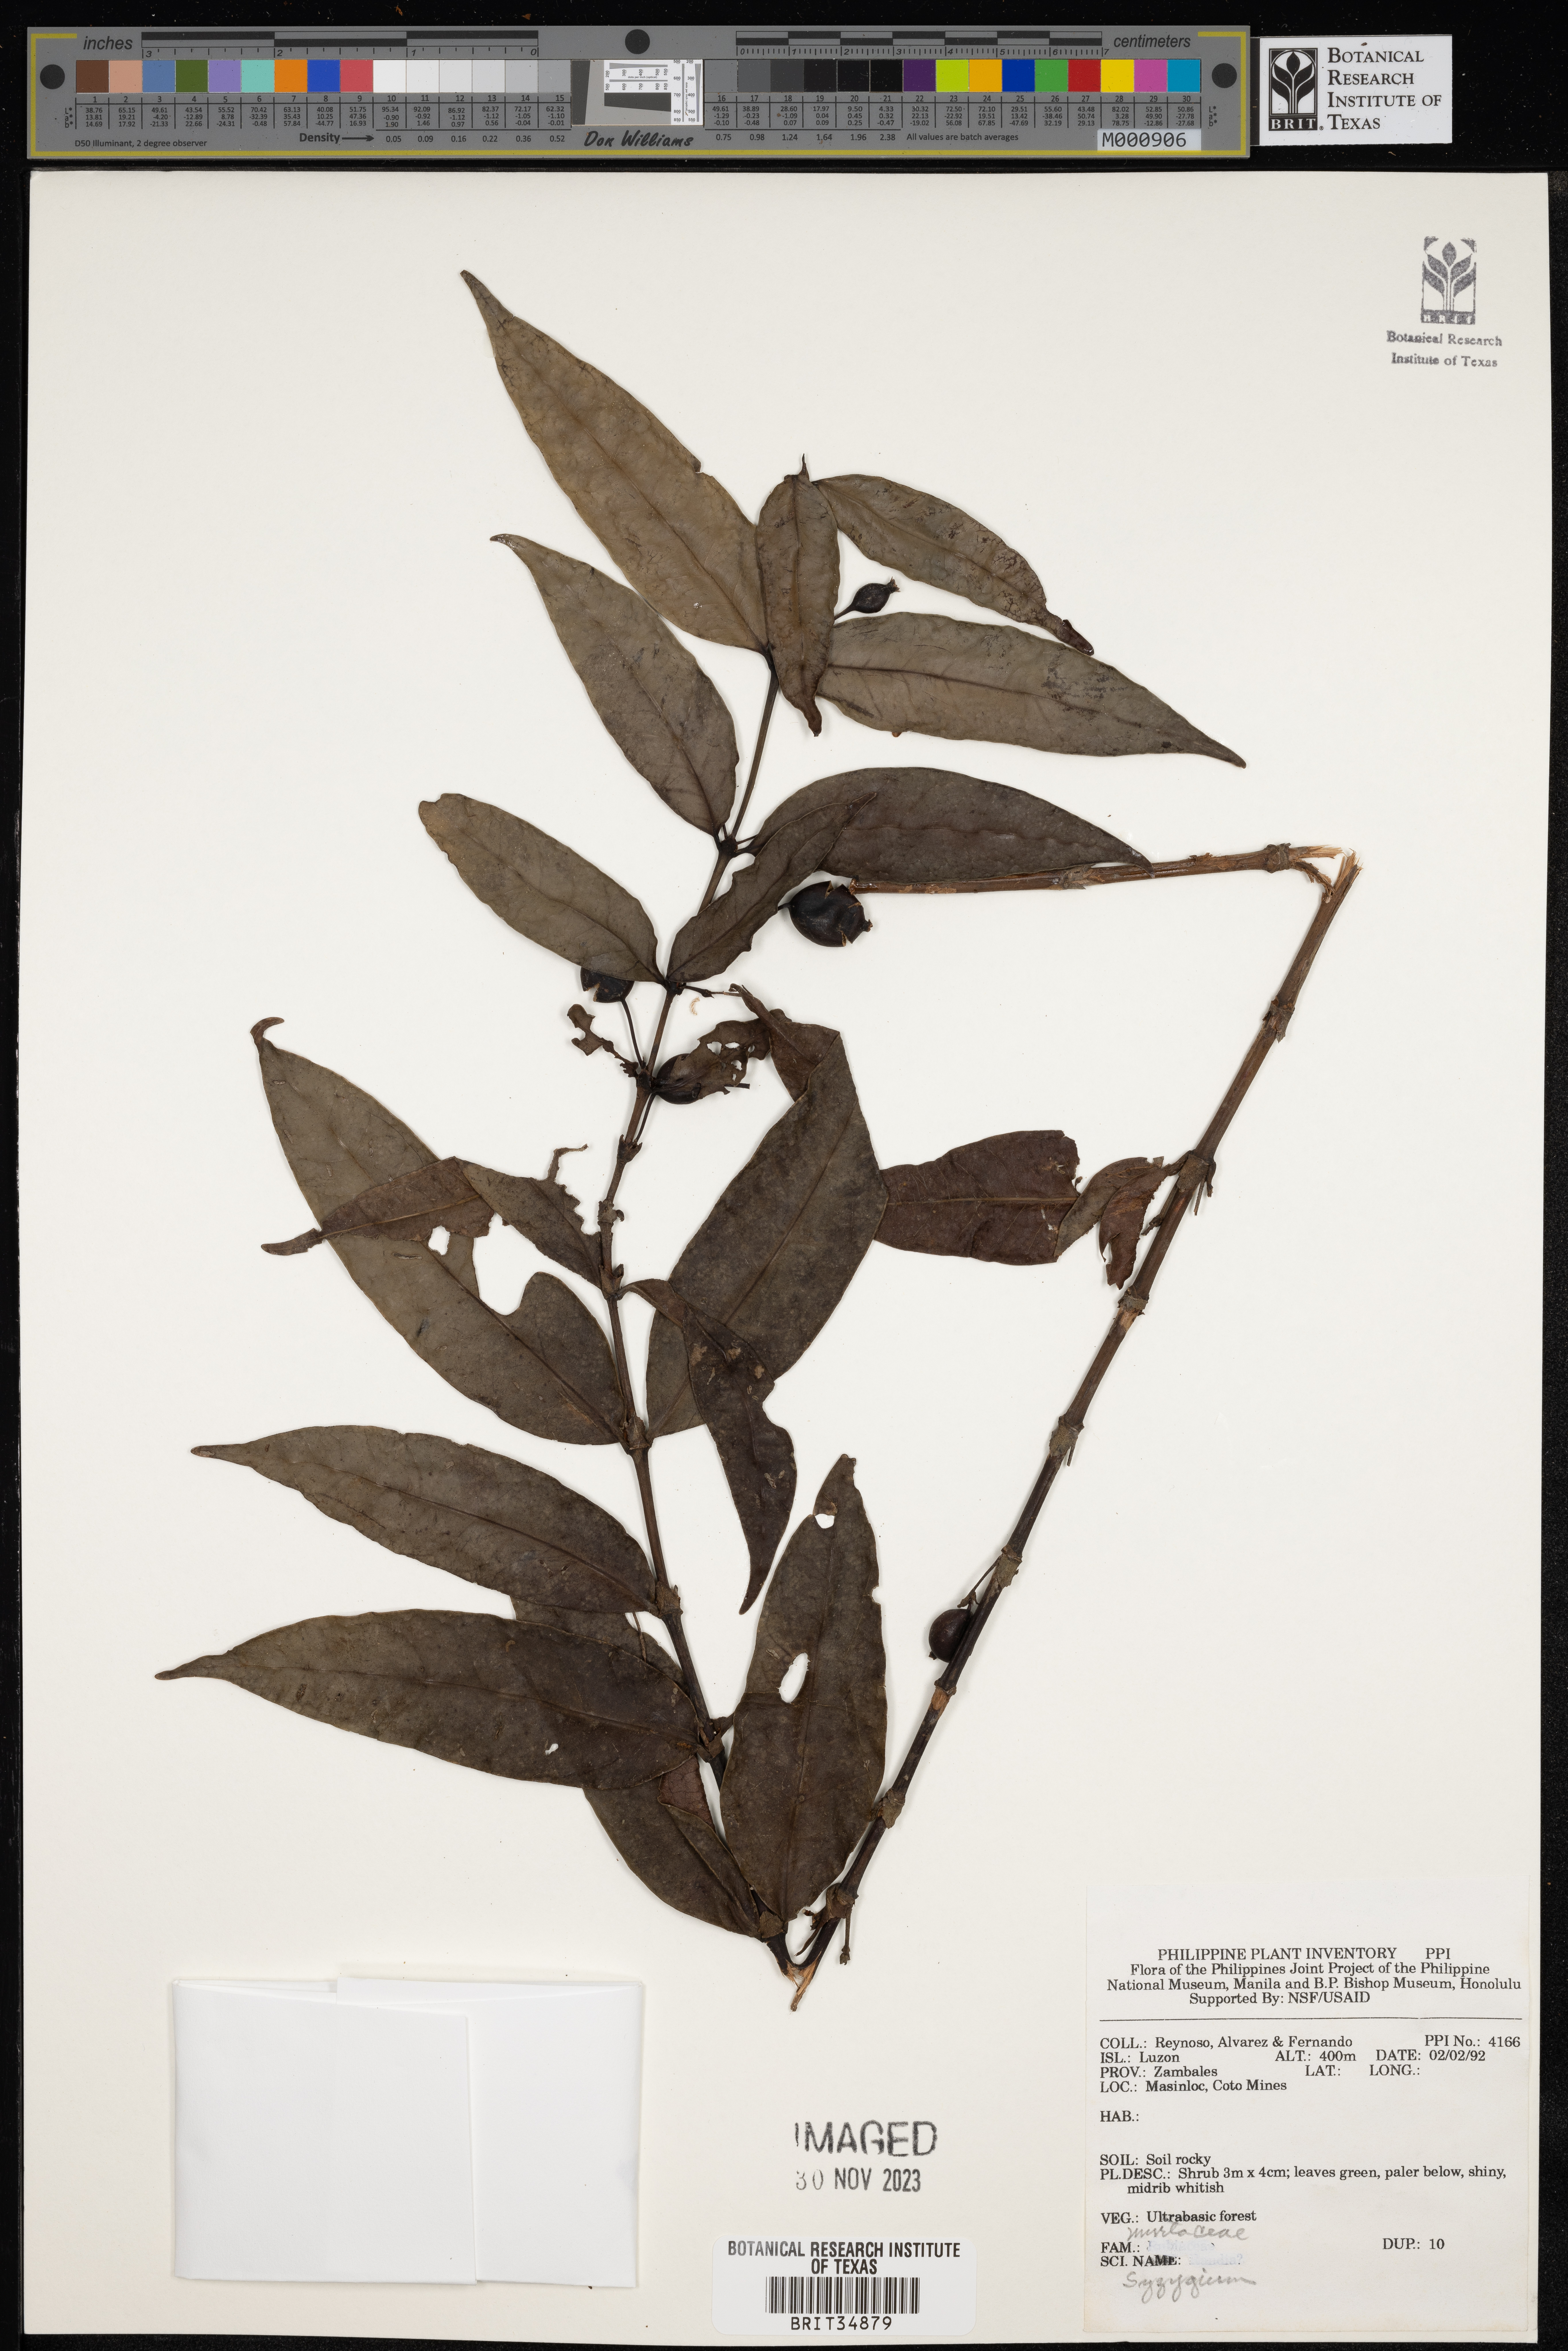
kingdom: Plantae
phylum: Tracheophyta
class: Magnoliopsida
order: Myrtales
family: Myrtaceae
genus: Syzygium
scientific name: Syzygium
